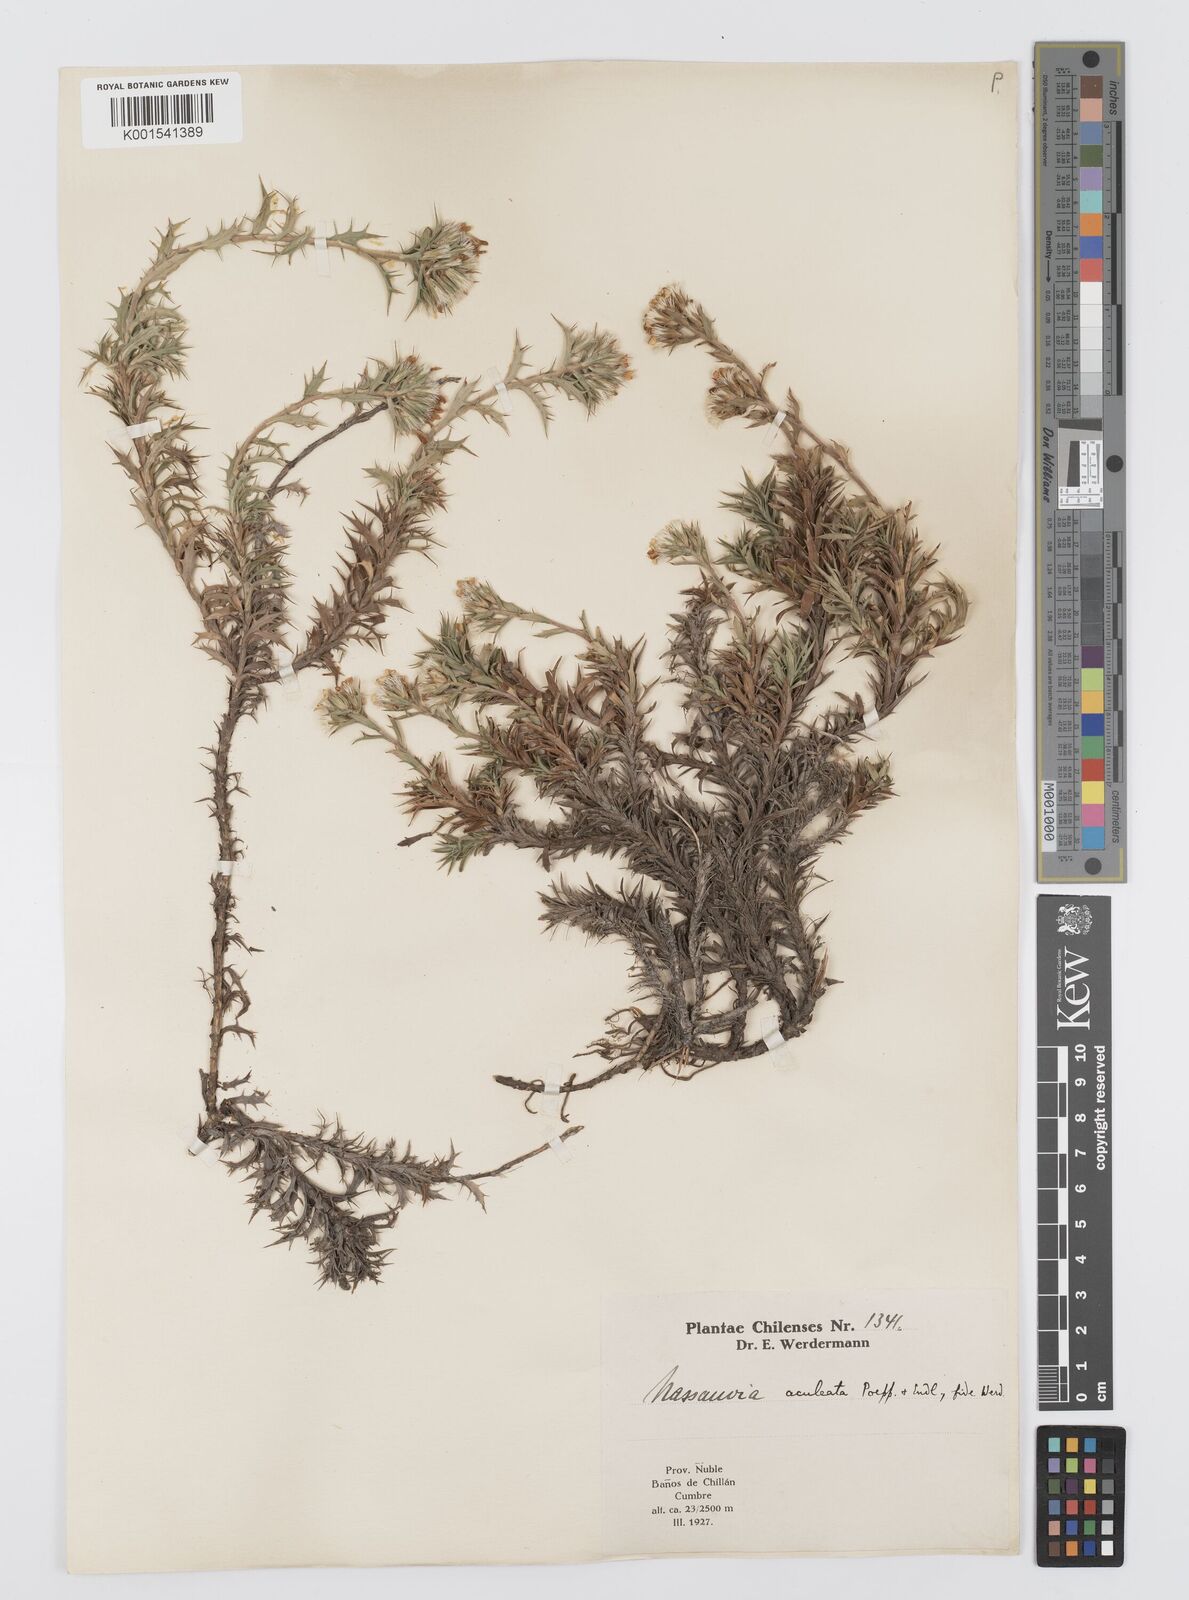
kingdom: Plantae
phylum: Tracheophyta
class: Magnoliopsida
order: Asterales
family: Asteraceae
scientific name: Asteraceae
